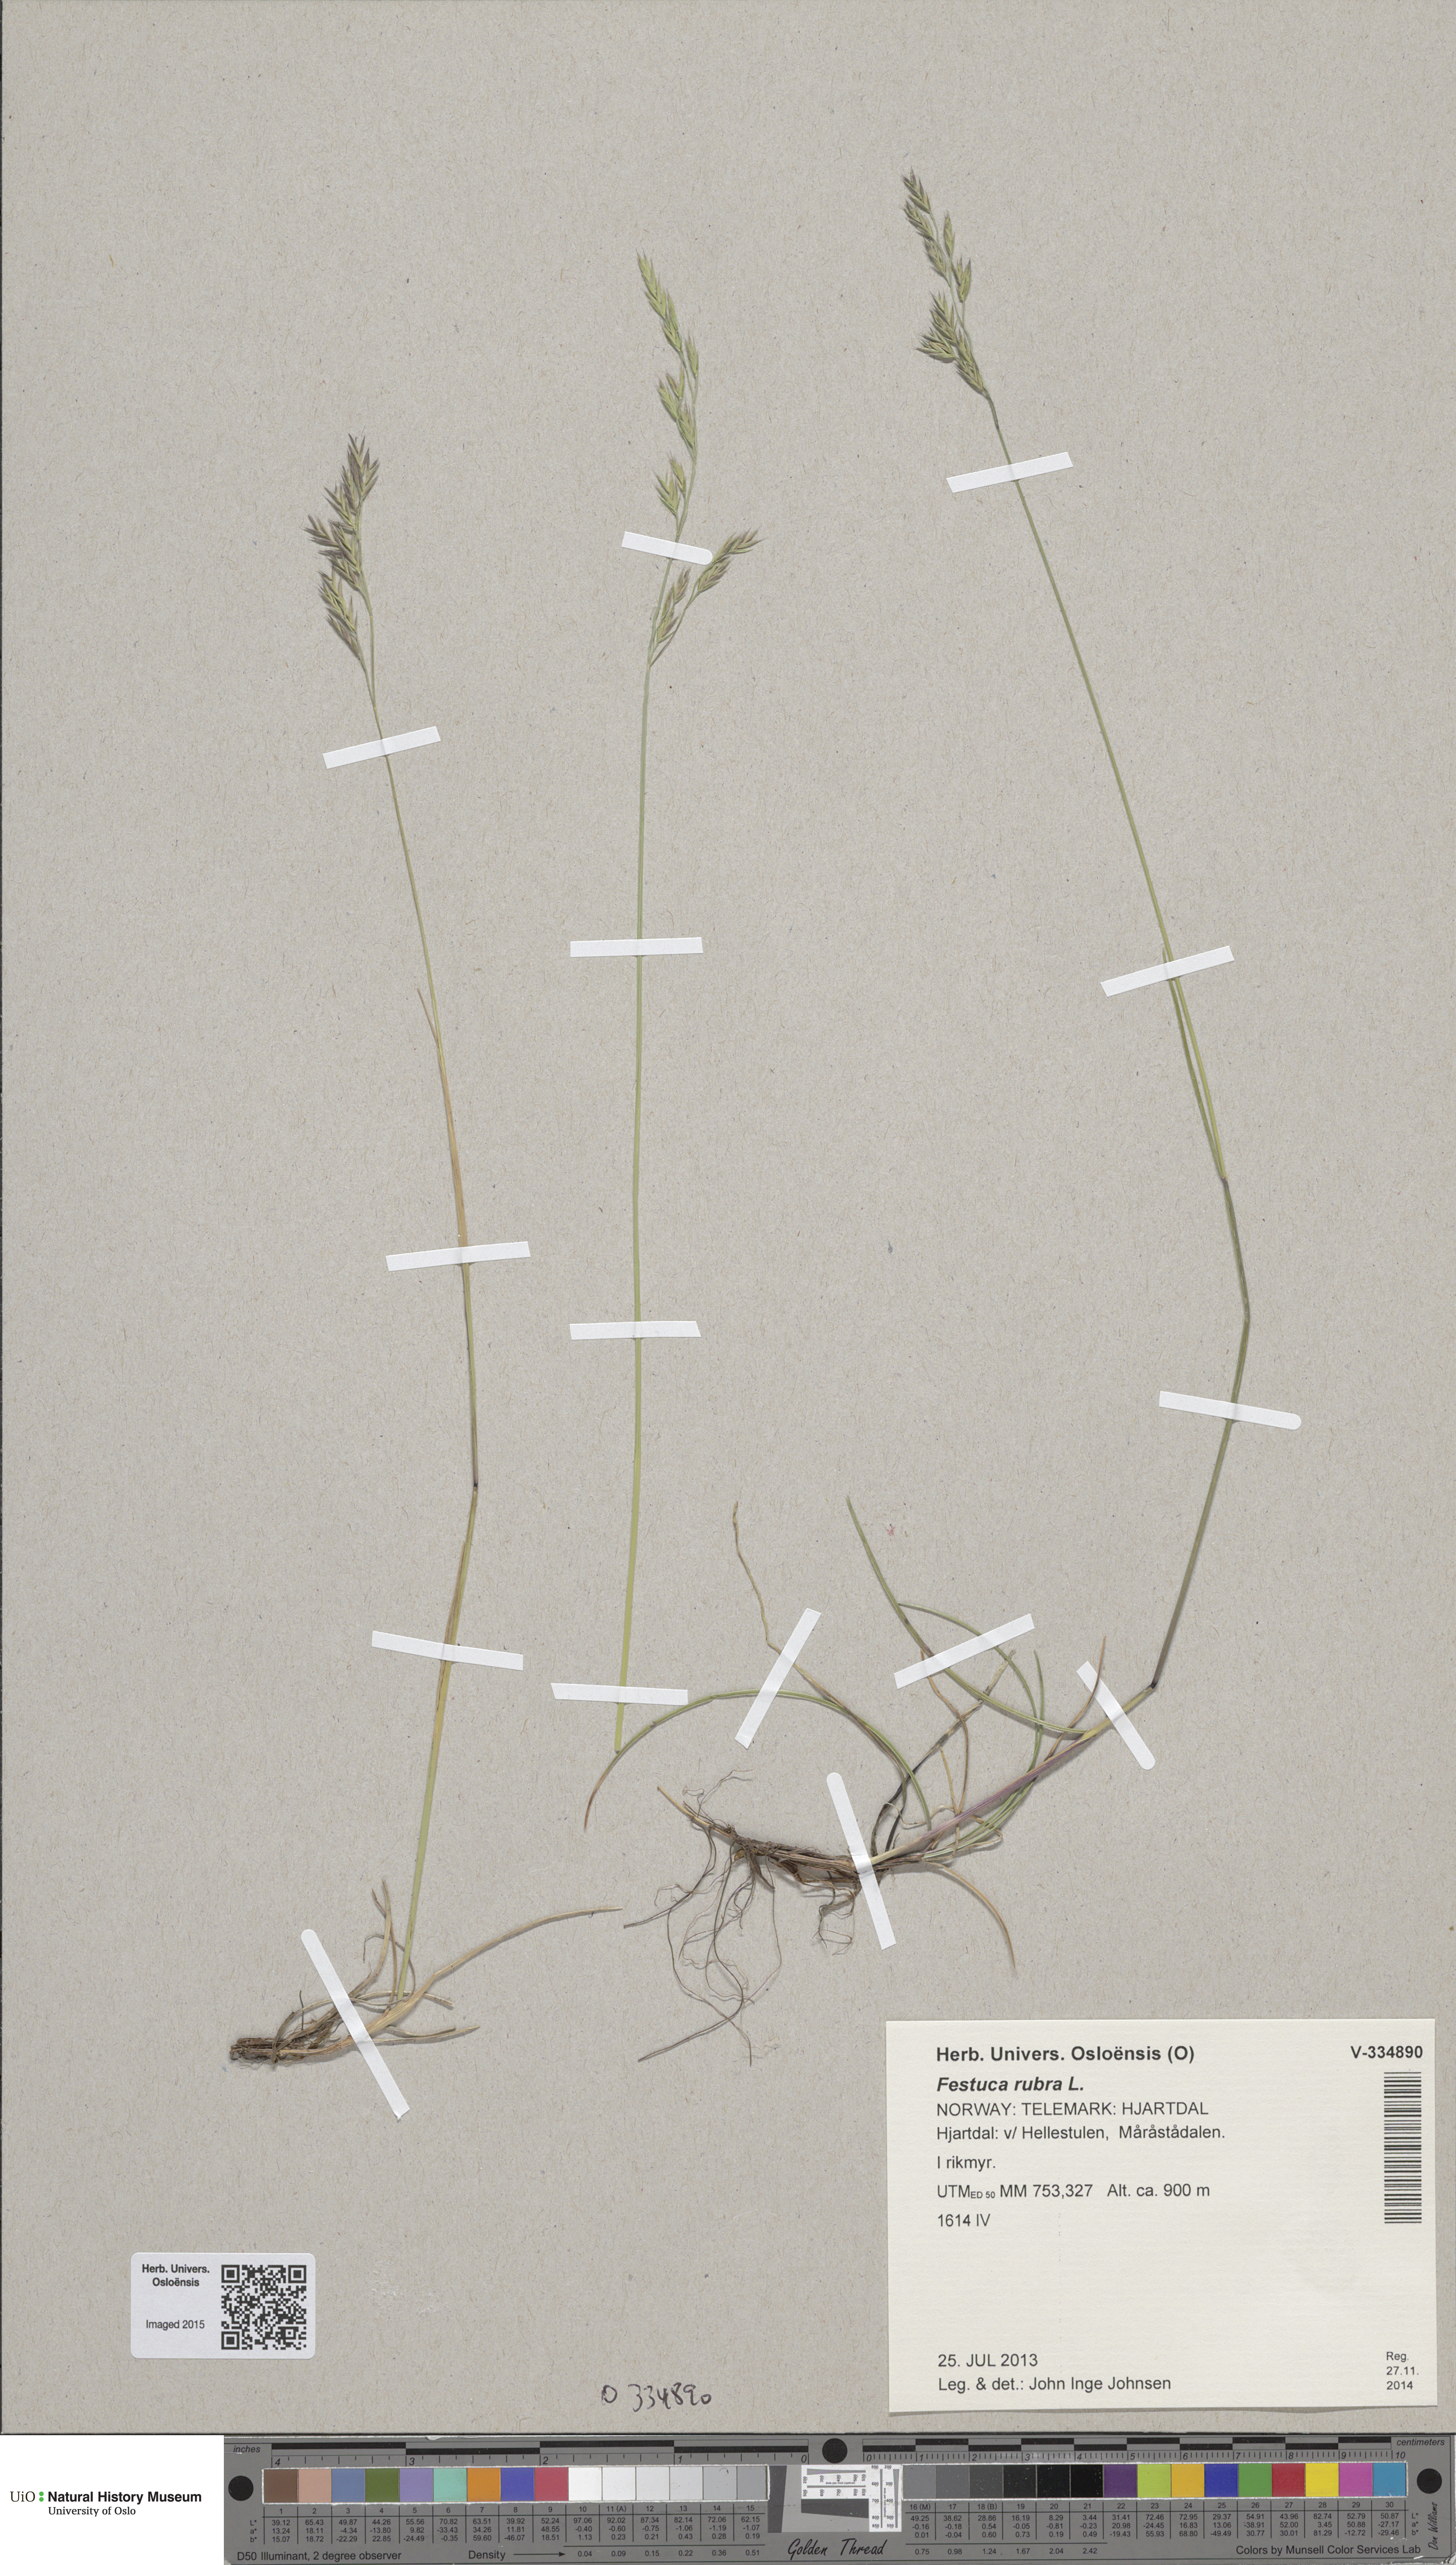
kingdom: Plantae
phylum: Tracheophyta
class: Liliopsida
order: Poales
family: Poaceae
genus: Festuca
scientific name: Festuca rubra
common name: Red fescue
